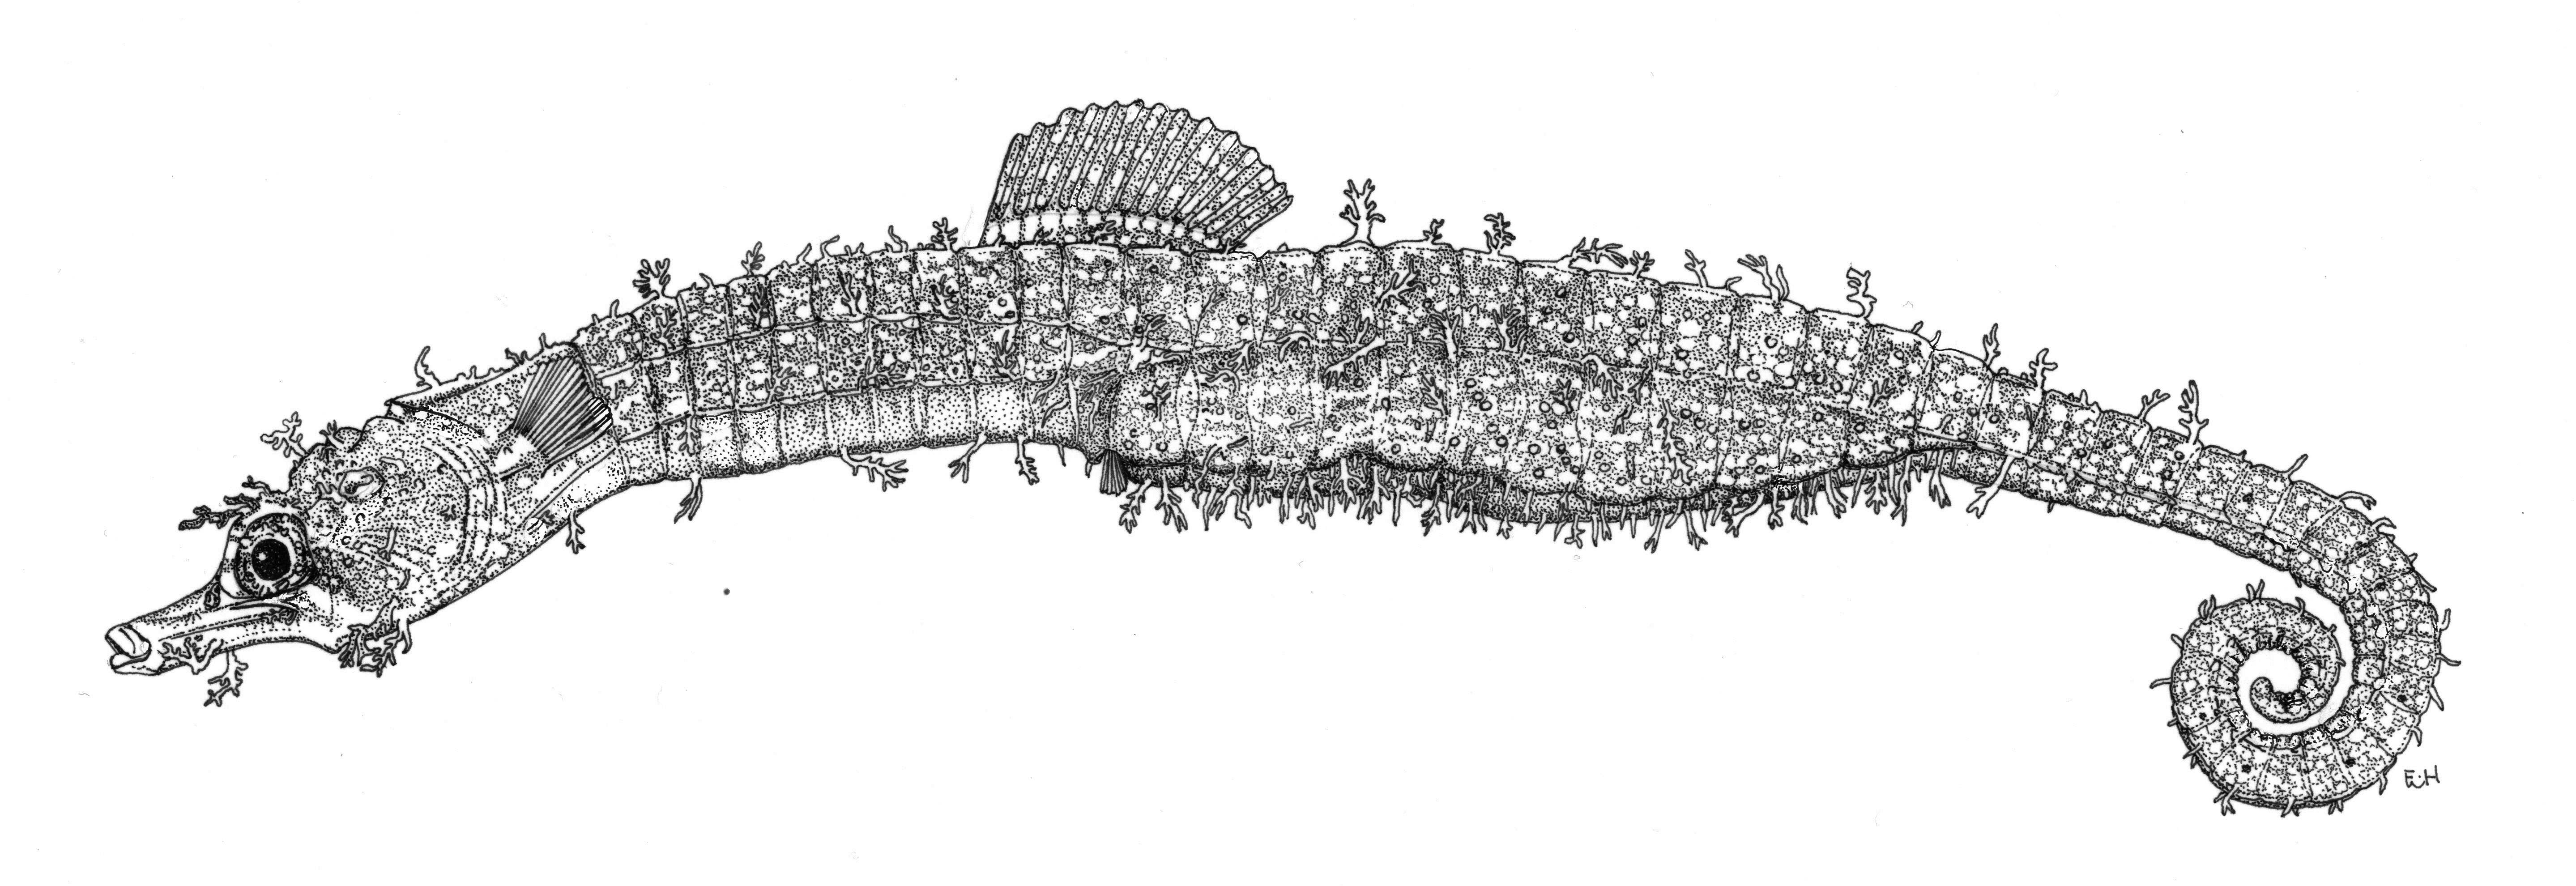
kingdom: Animalia
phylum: Chordata
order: Syngnathiformes
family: Syngnathidae
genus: Acentronura
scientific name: Acentronura tentaculata
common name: Shortpouch pygmy pipehorse
